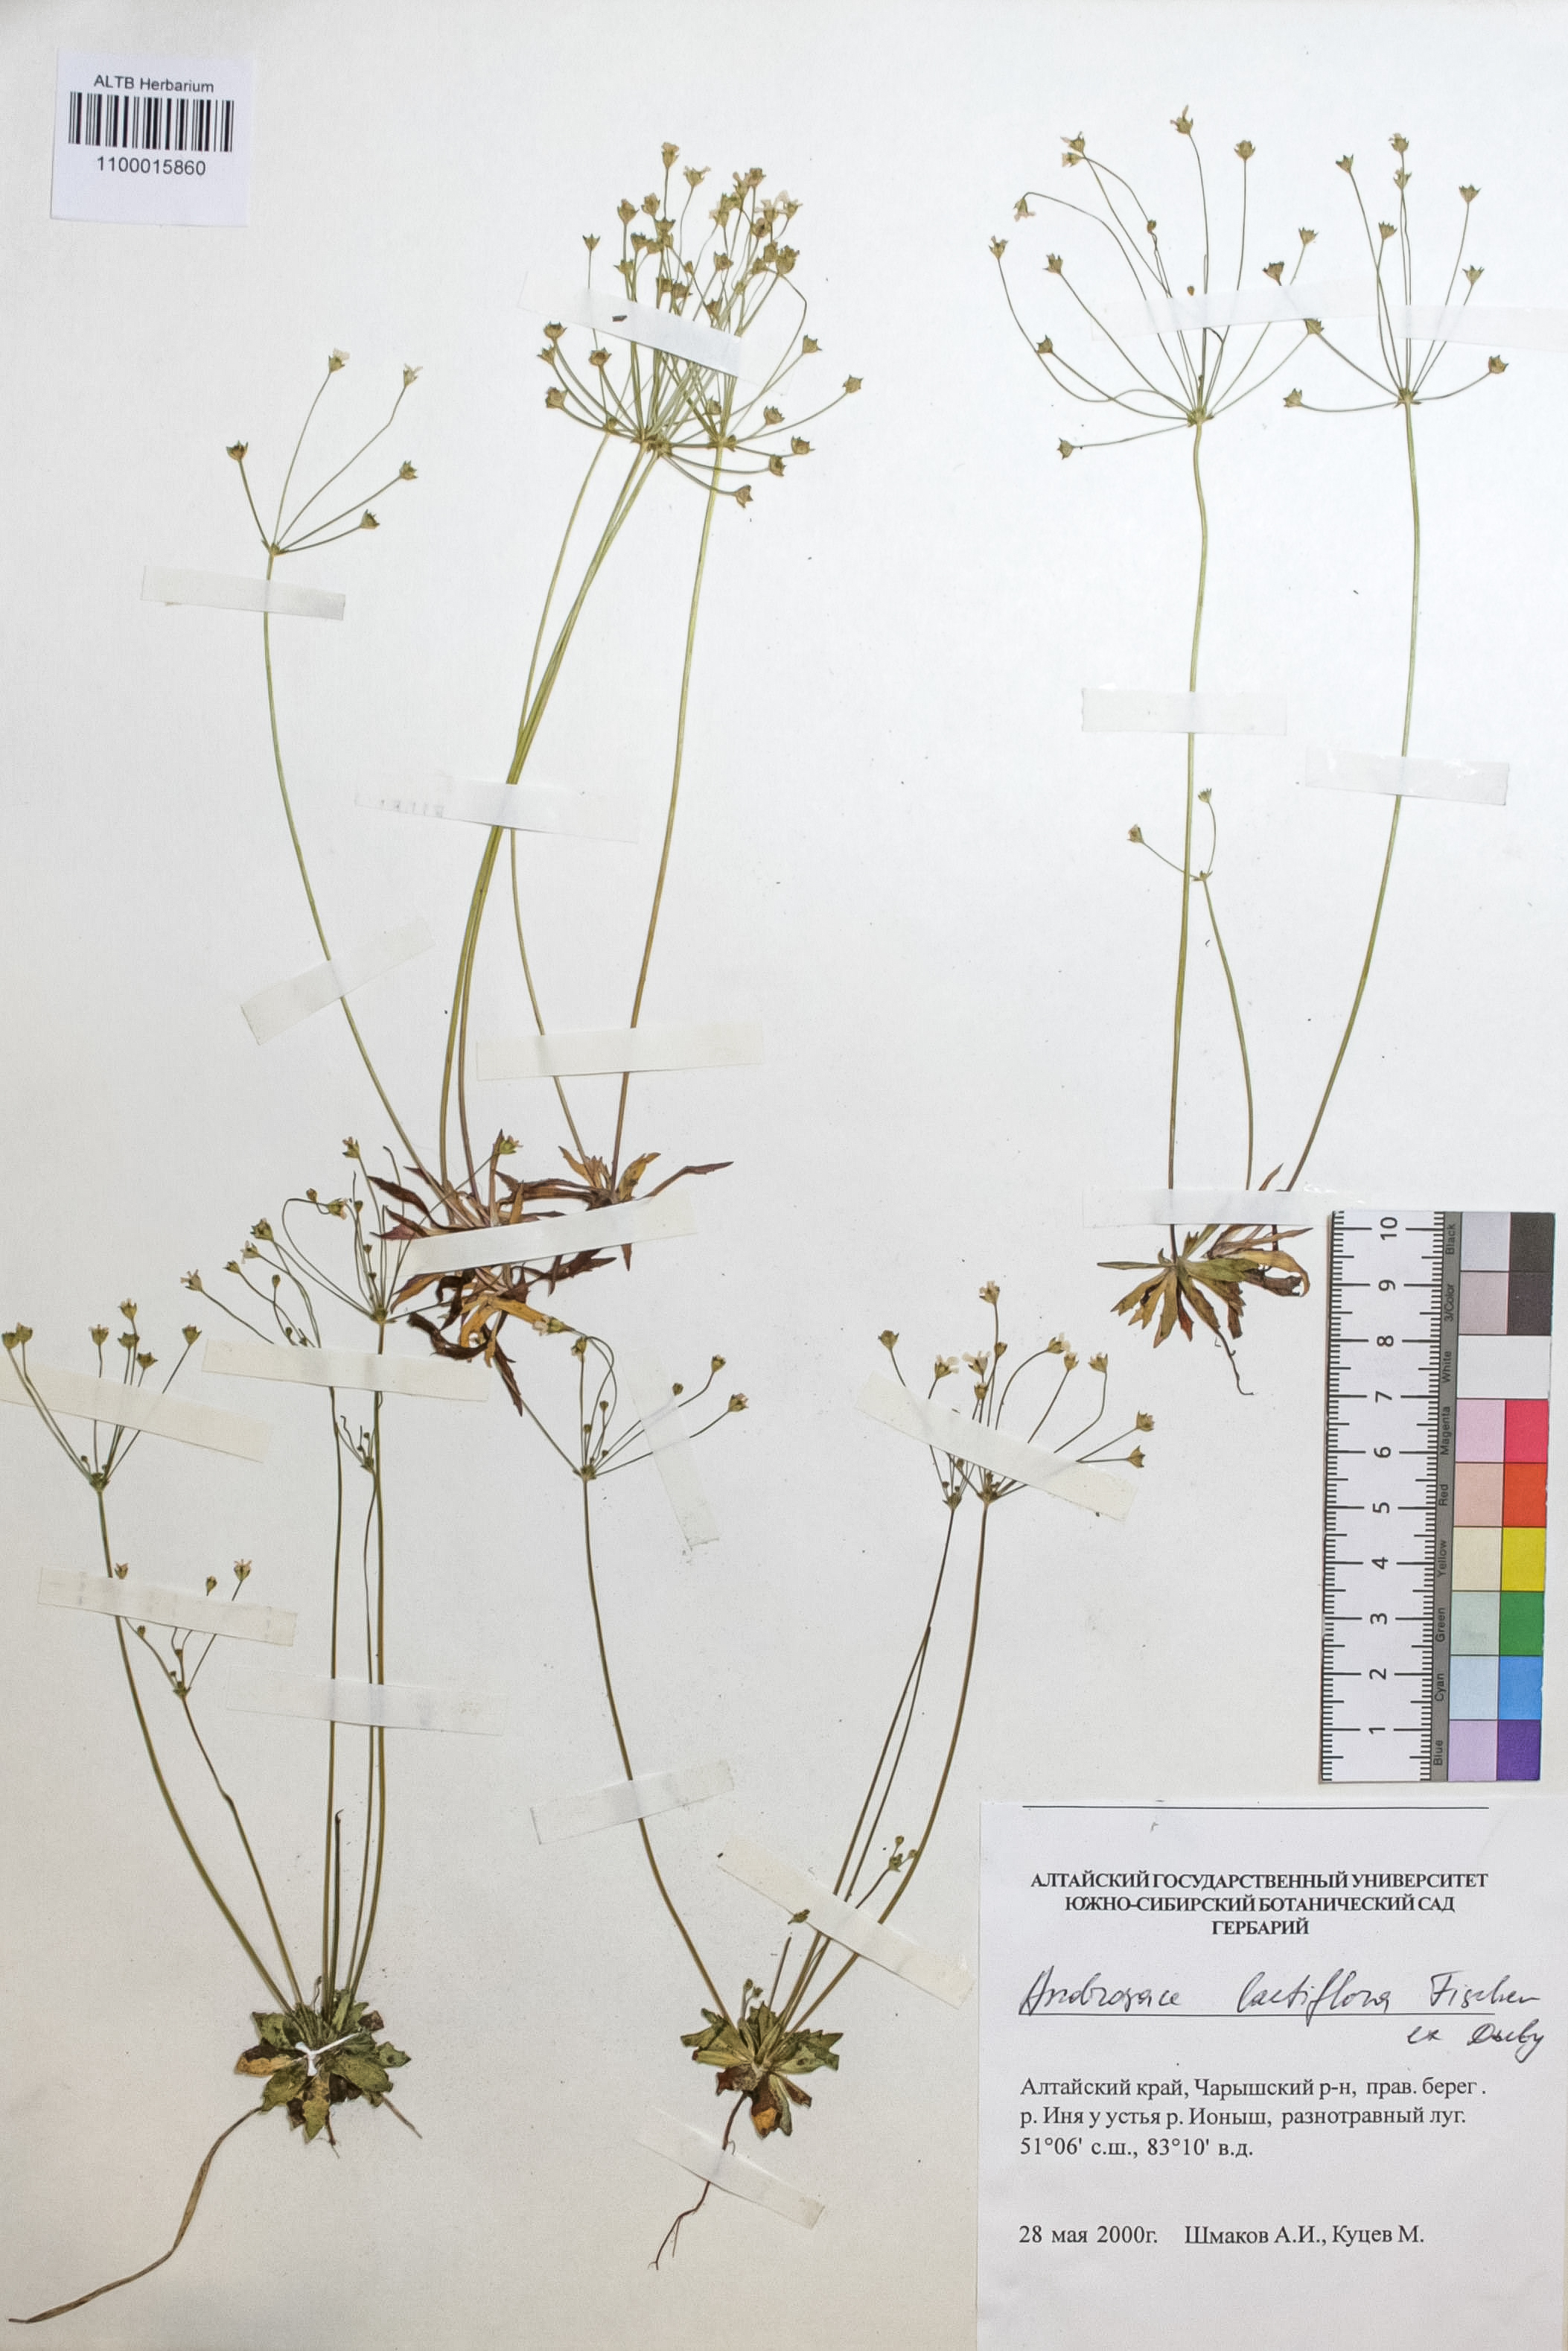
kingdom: Plantae
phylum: Tracheophyta
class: Magnoliopsida
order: Ericales
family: Primulaceae
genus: Androsace
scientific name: Androsace lactiflora
